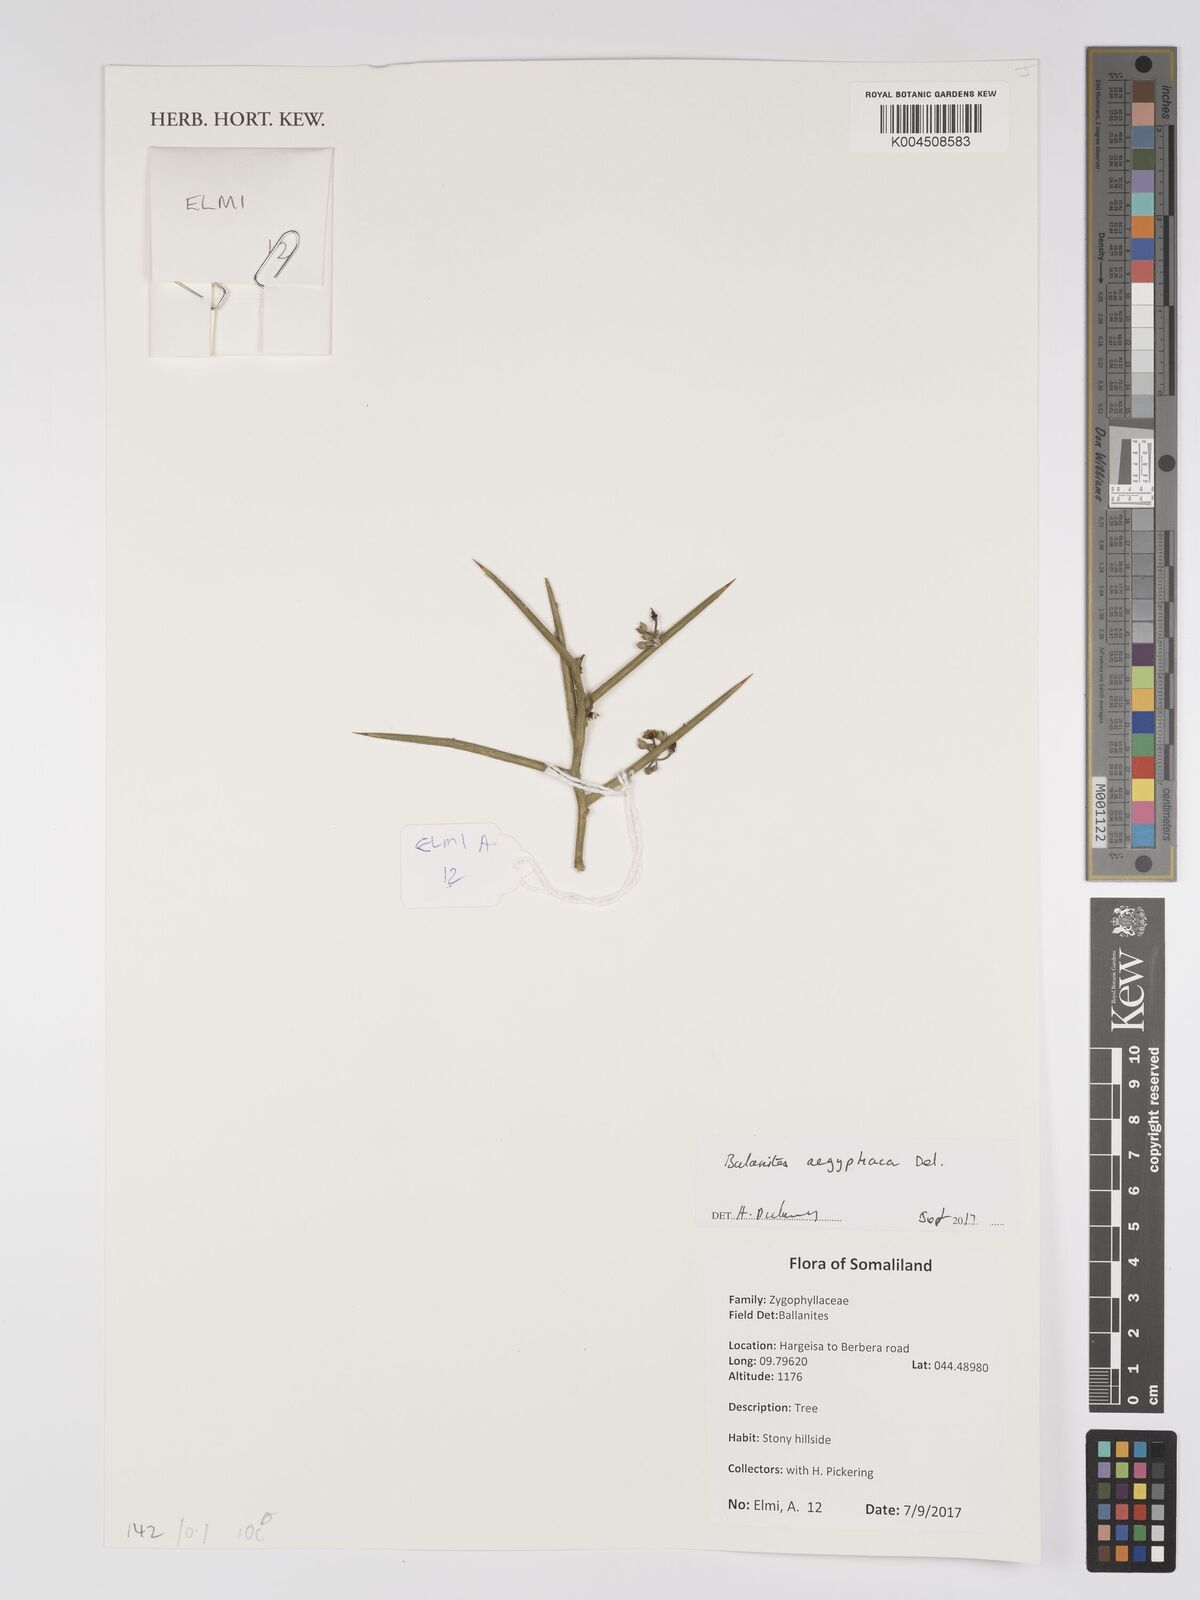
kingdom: Plantae
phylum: Tracheophyta
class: Magnoliopsida
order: Zygophyllales
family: Zygophyllaceae
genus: Balanites
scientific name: Balanites aegyptiaca
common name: Balanites
